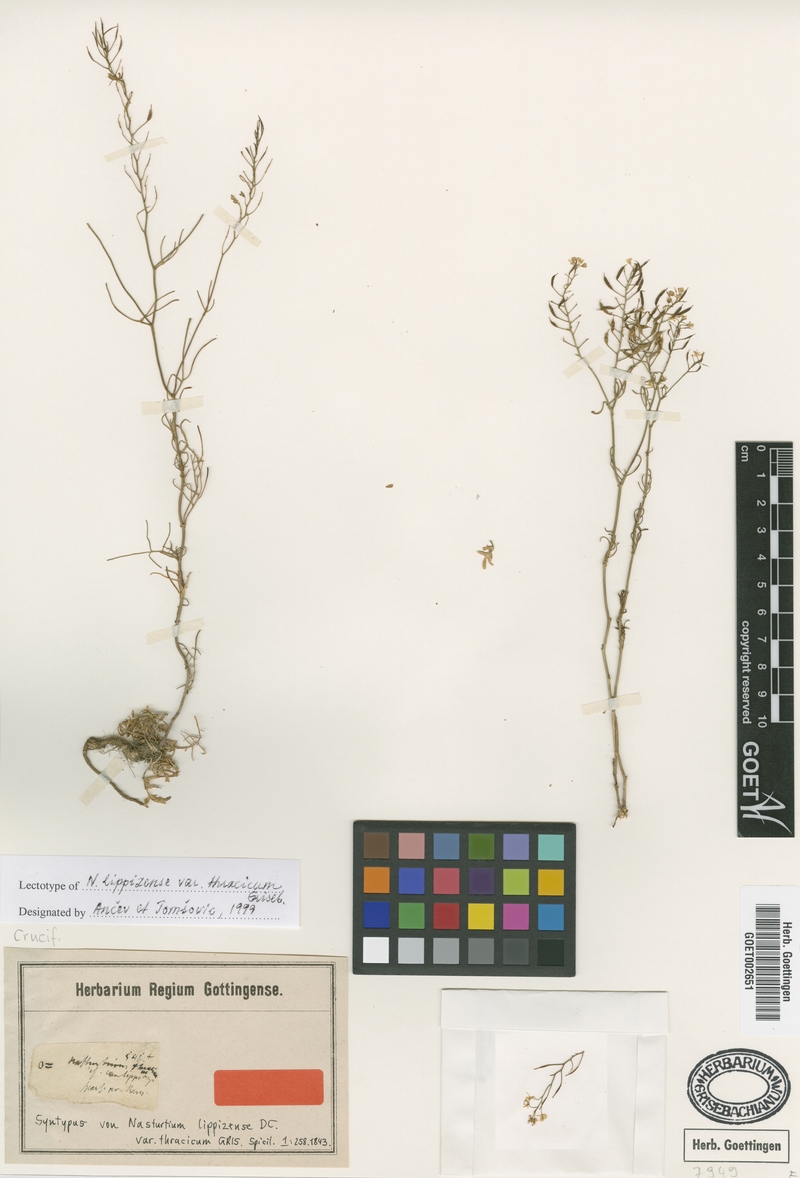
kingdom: Plantae
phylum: Tracheophyta
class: Magnoliopsida
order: Brassicales
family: Brassicaceae
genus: Rorippa
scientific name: Rorippa lippizensis
